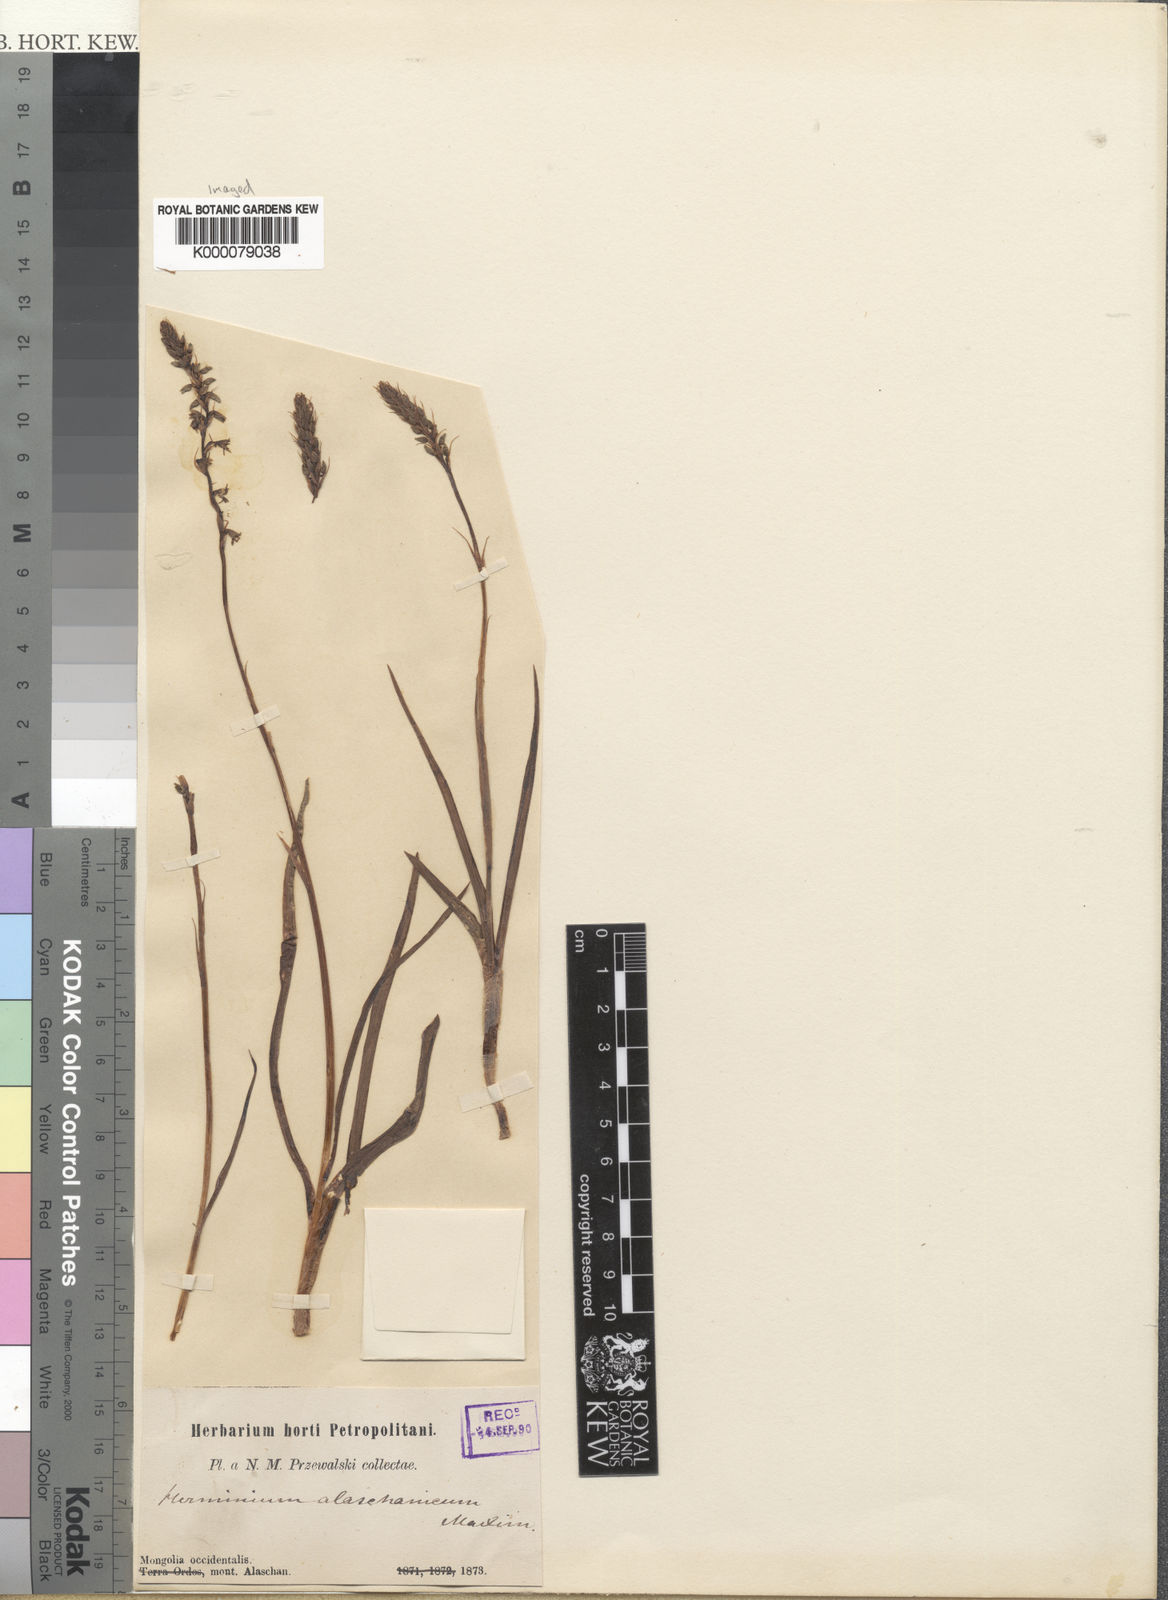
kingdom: Plantae
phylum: Tracheophyta
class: Liliopsida
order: Asparagales
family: Orchidaceae
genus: Herminium
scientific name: Herminium monophyllum
